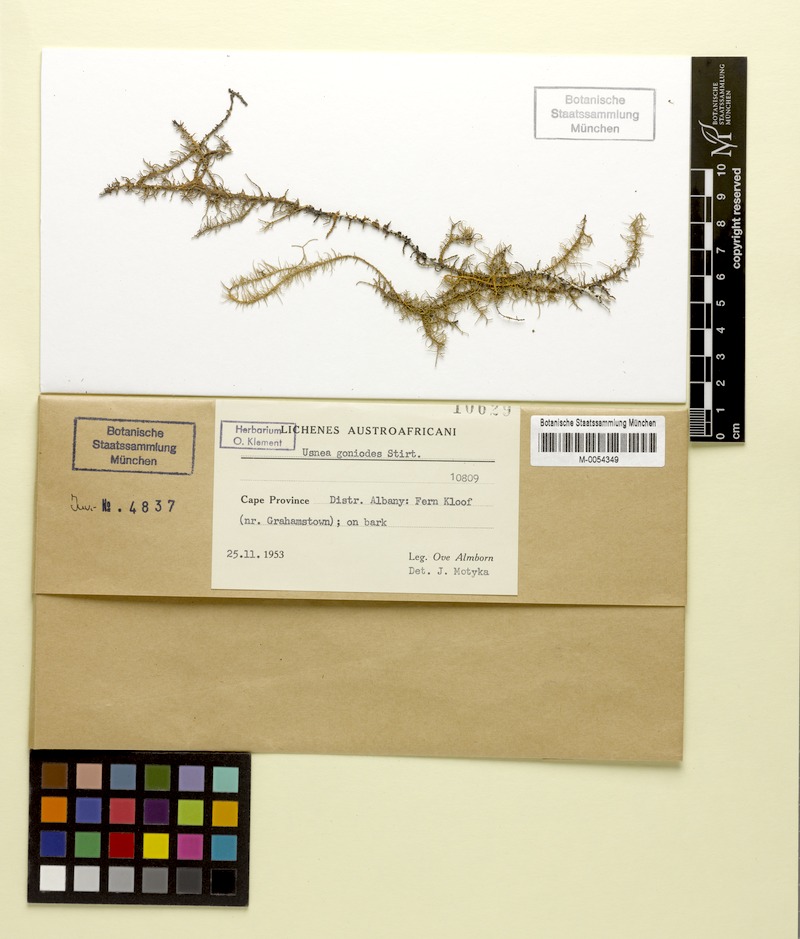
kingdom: Fungi
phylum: Ascomycota
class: Lecanoromycetes
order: Lecanorales
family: Parmeliaceae
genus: Usnea
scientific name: Usnea goniodes
